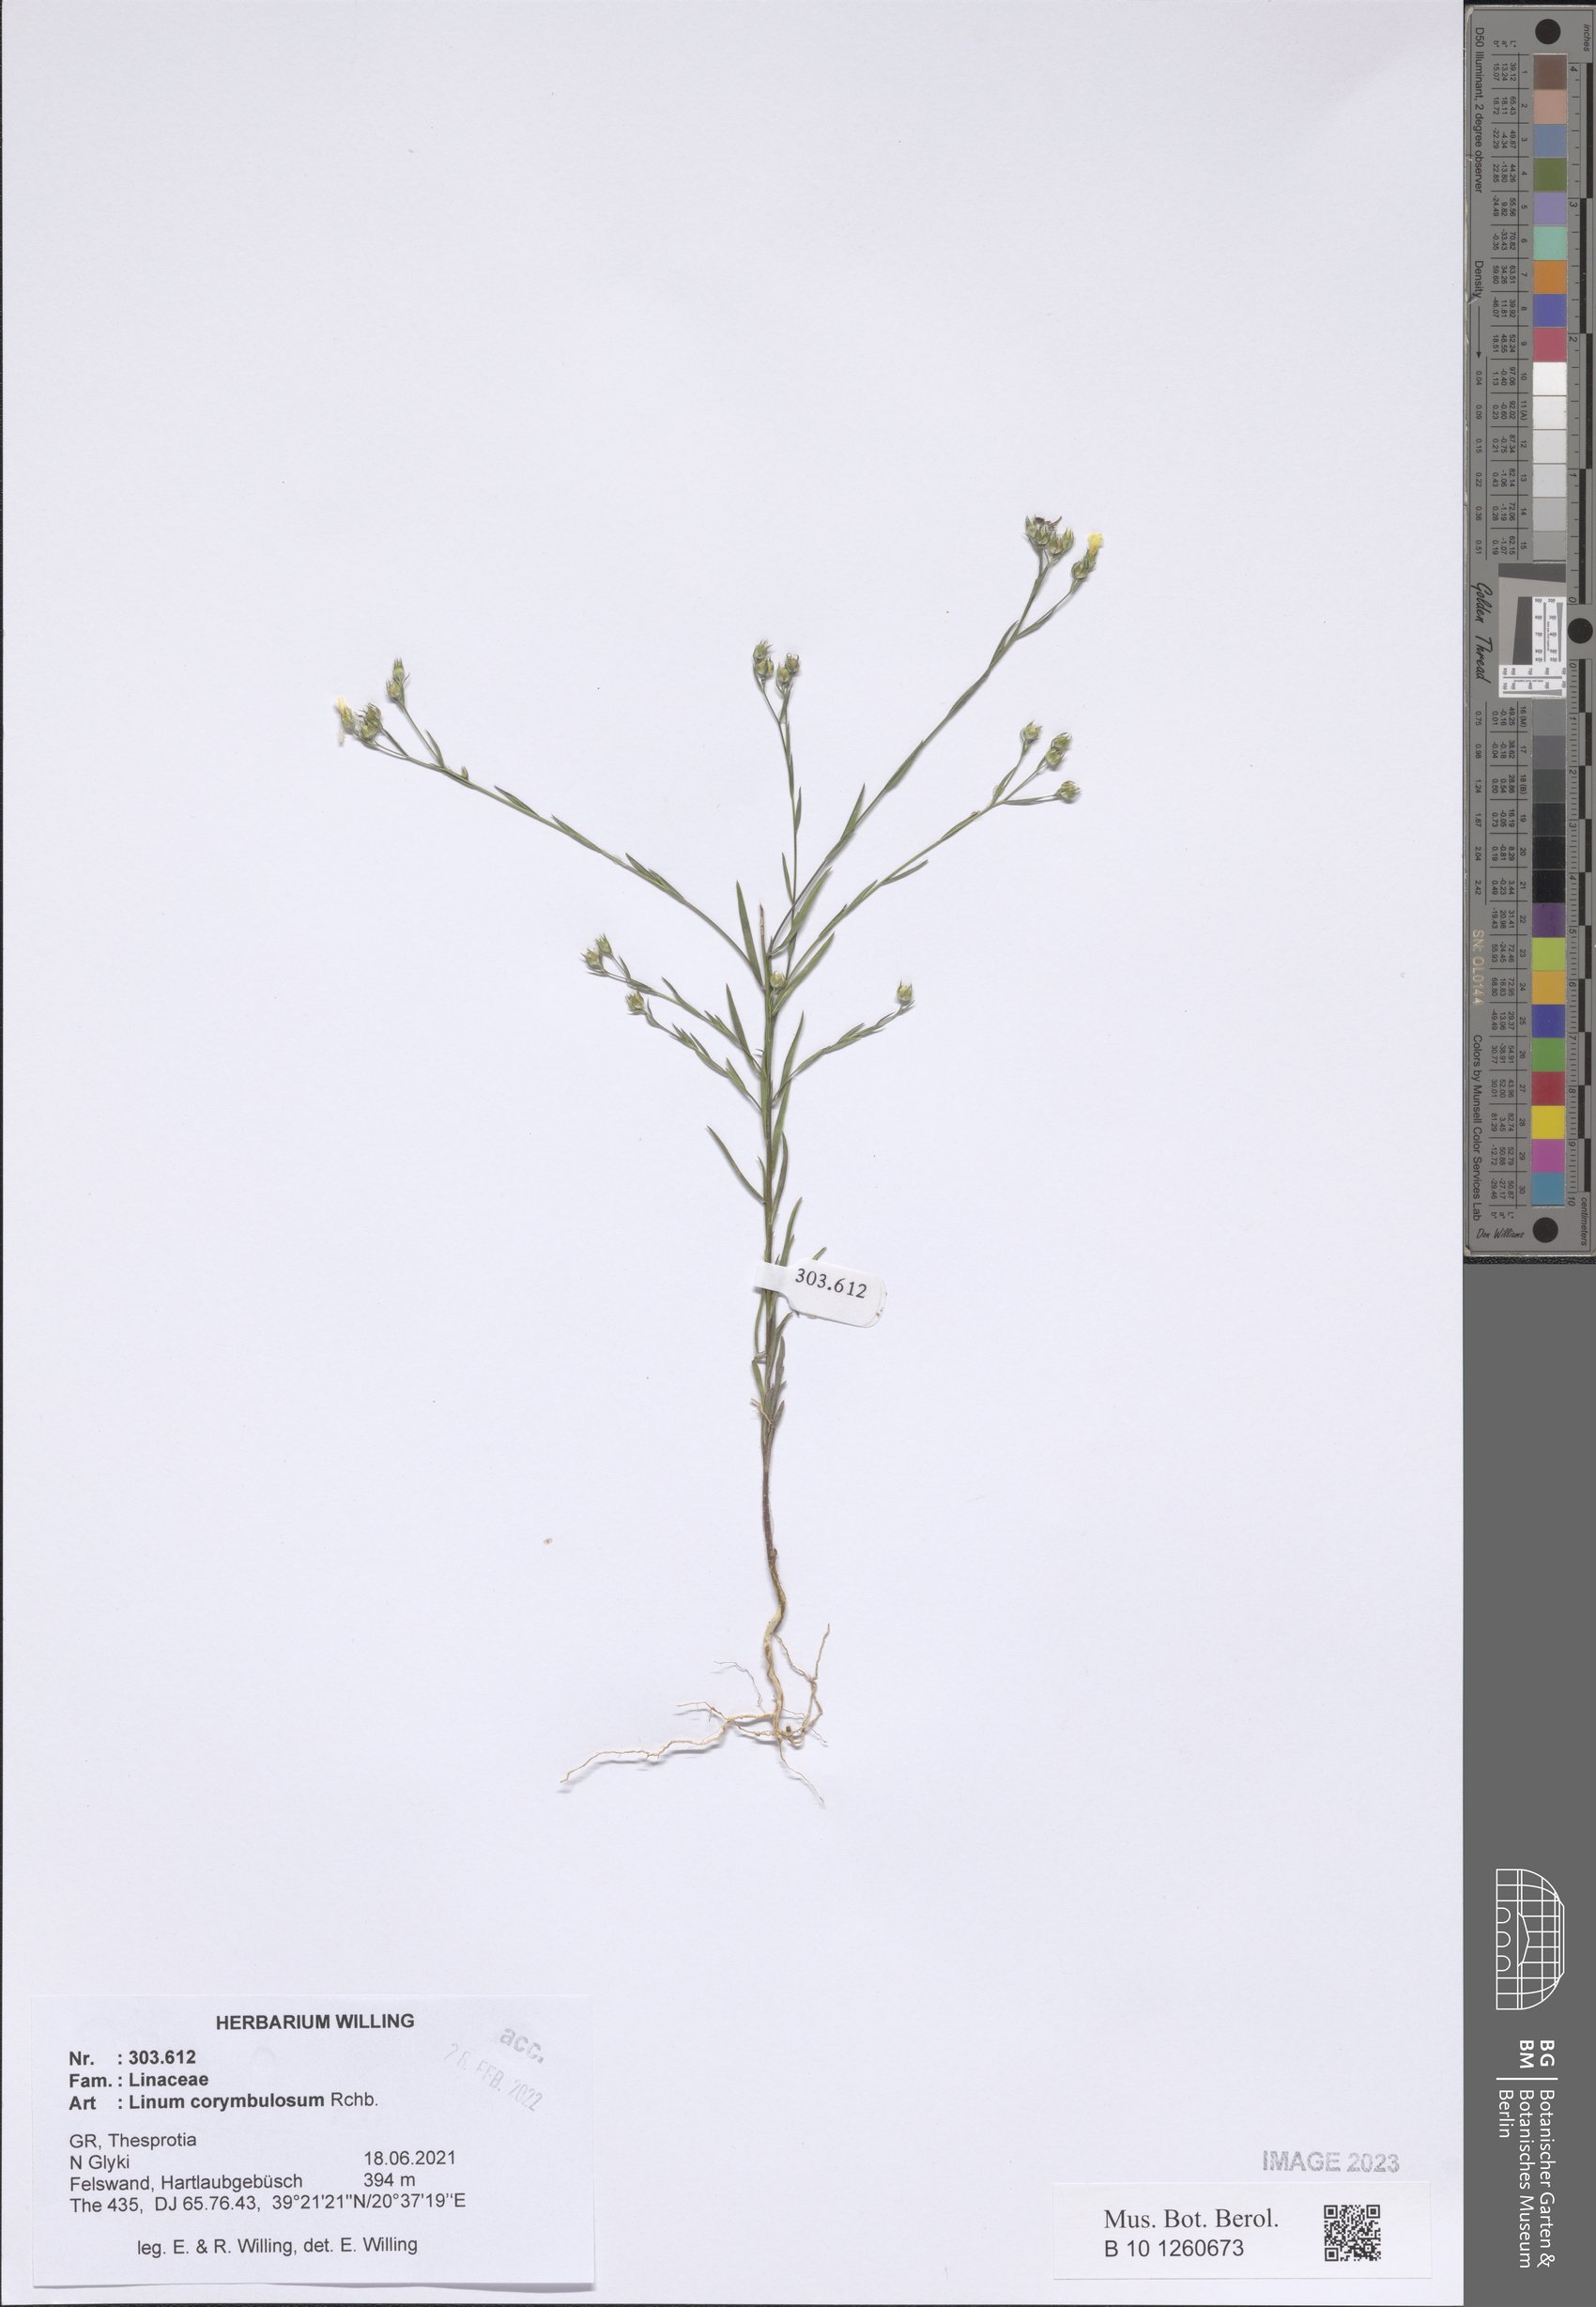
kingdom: Plantae
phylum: Tracheophyta
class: Magnoliopsida
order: Malpighiales
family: Linaceae
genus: Linum
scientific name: Linum corymbulosum
